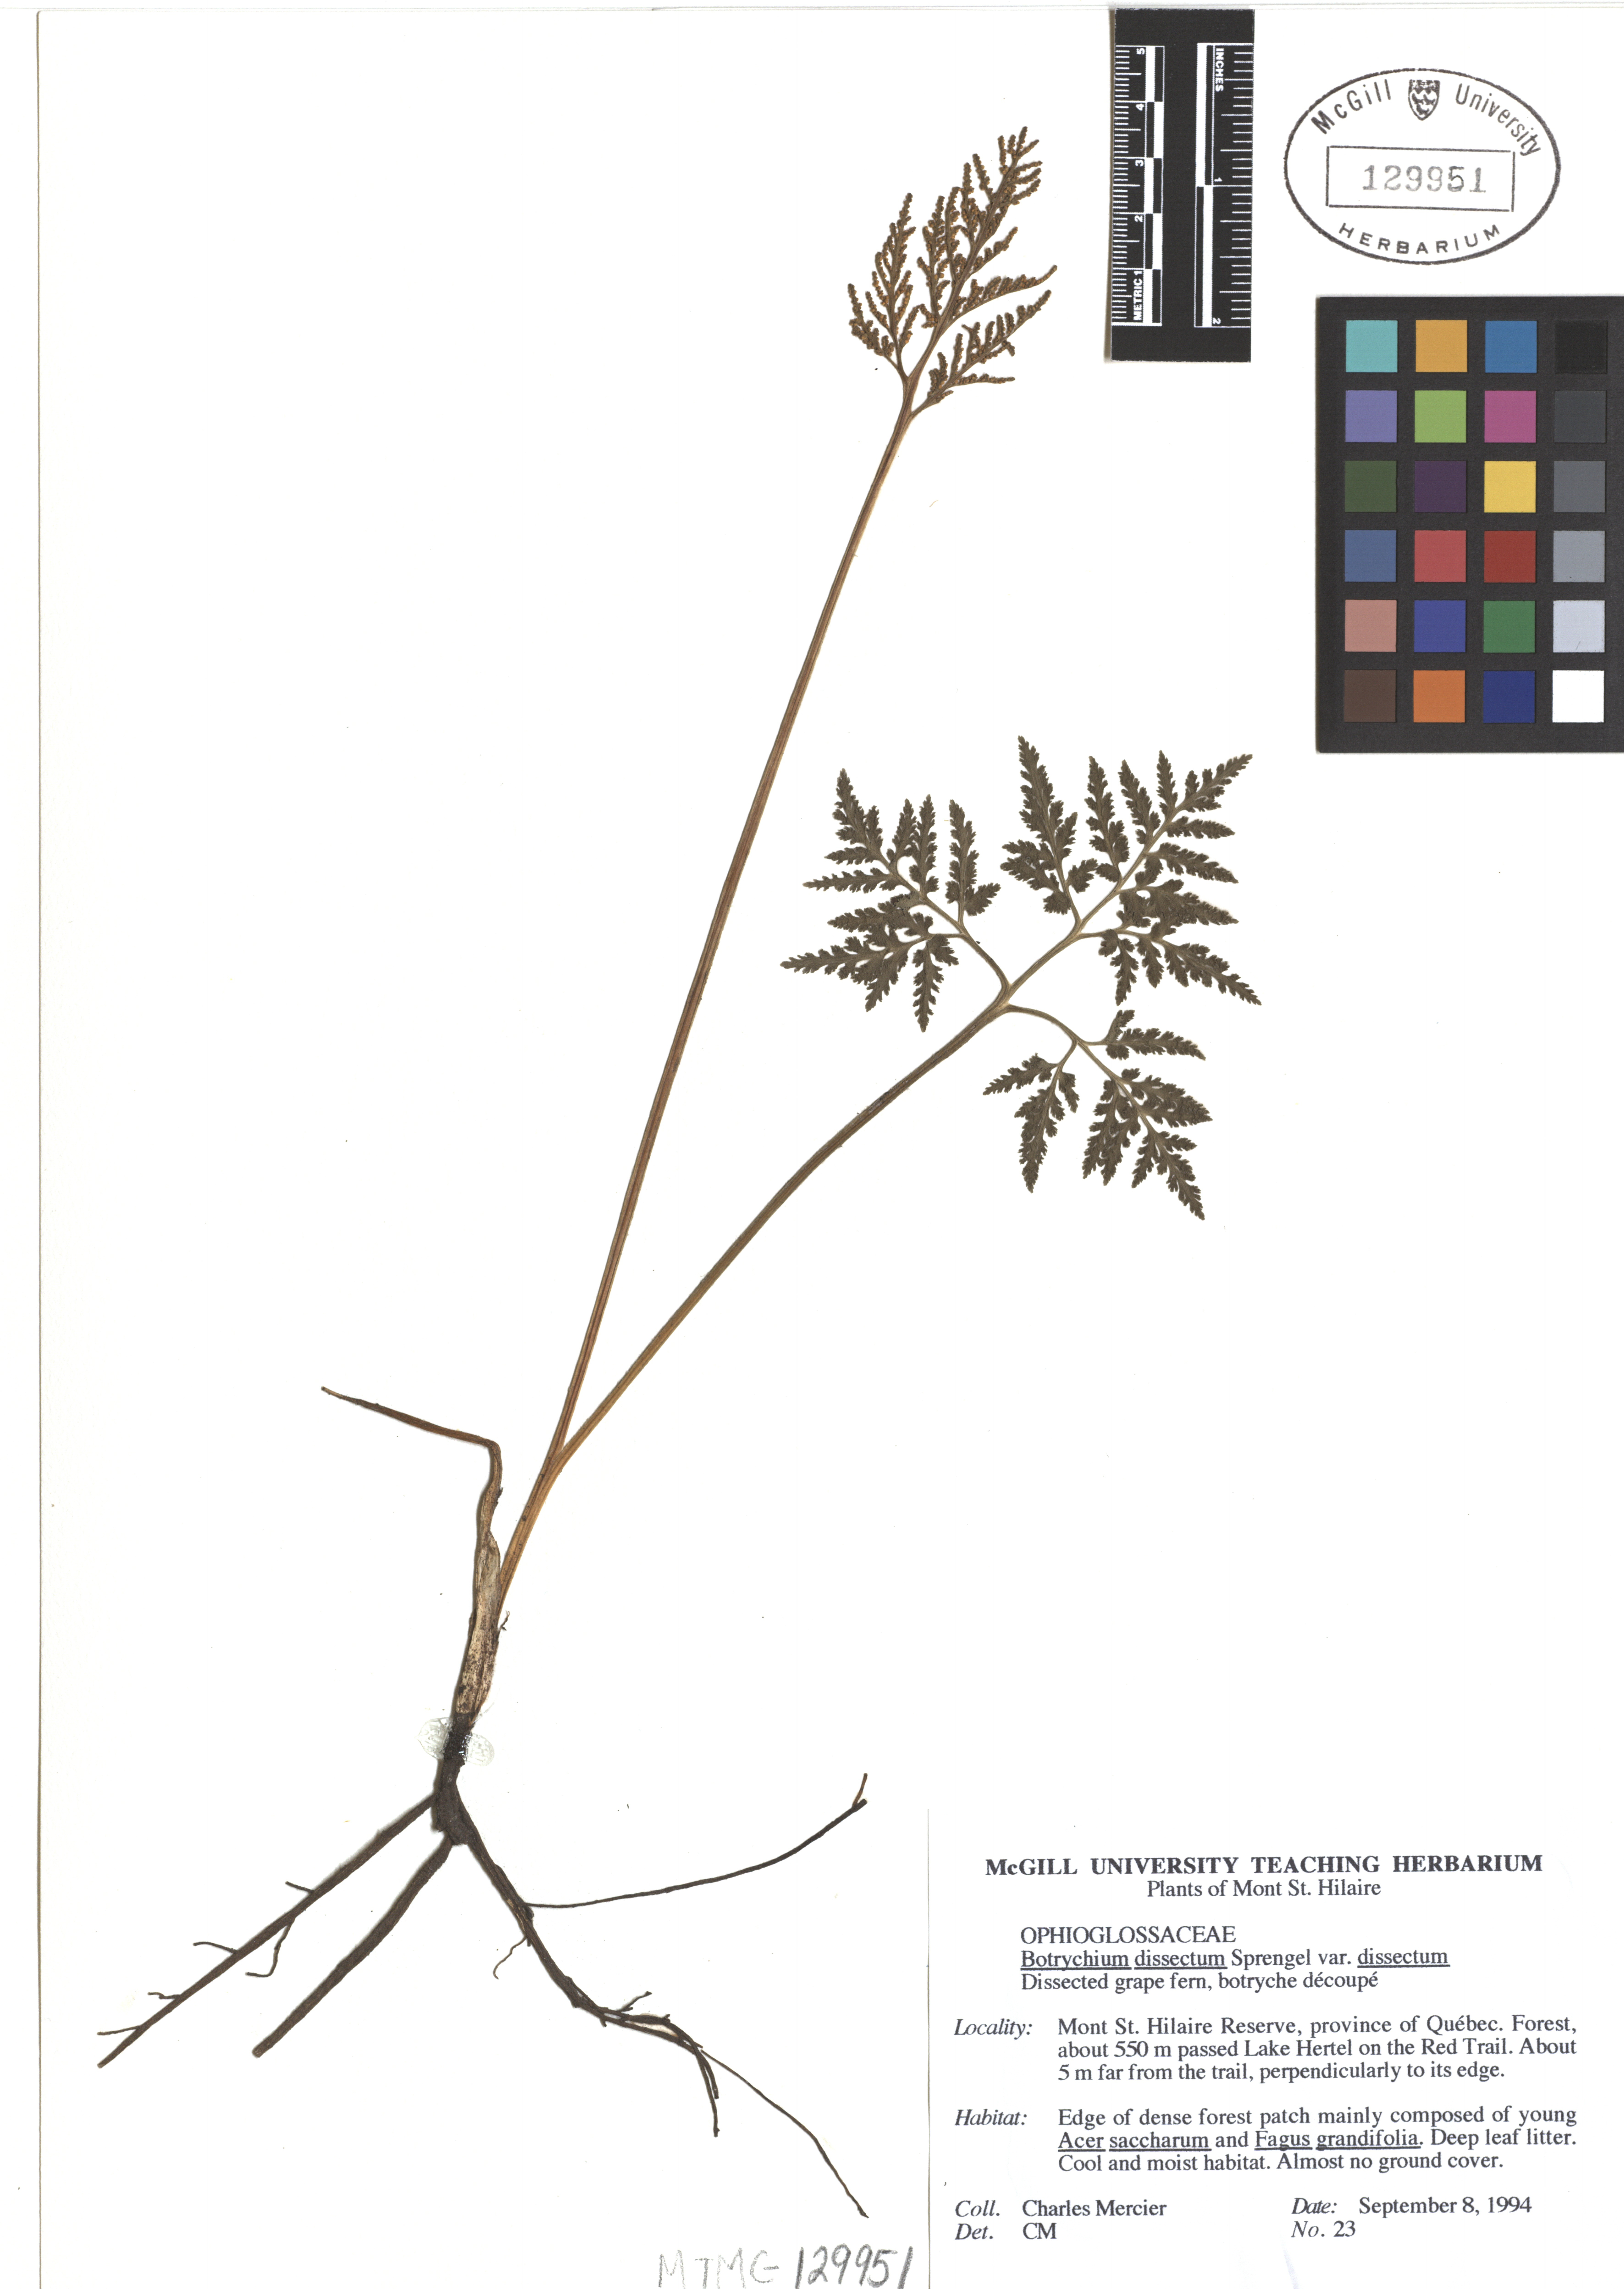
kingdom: Plantae
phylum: Tracheophyta
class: Polypodiopsida
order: Ophioglossales
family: Ophioglossaceae
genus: Sceptridium
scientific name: Sceptridium dissectum
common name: Cut-leaved grapefern
